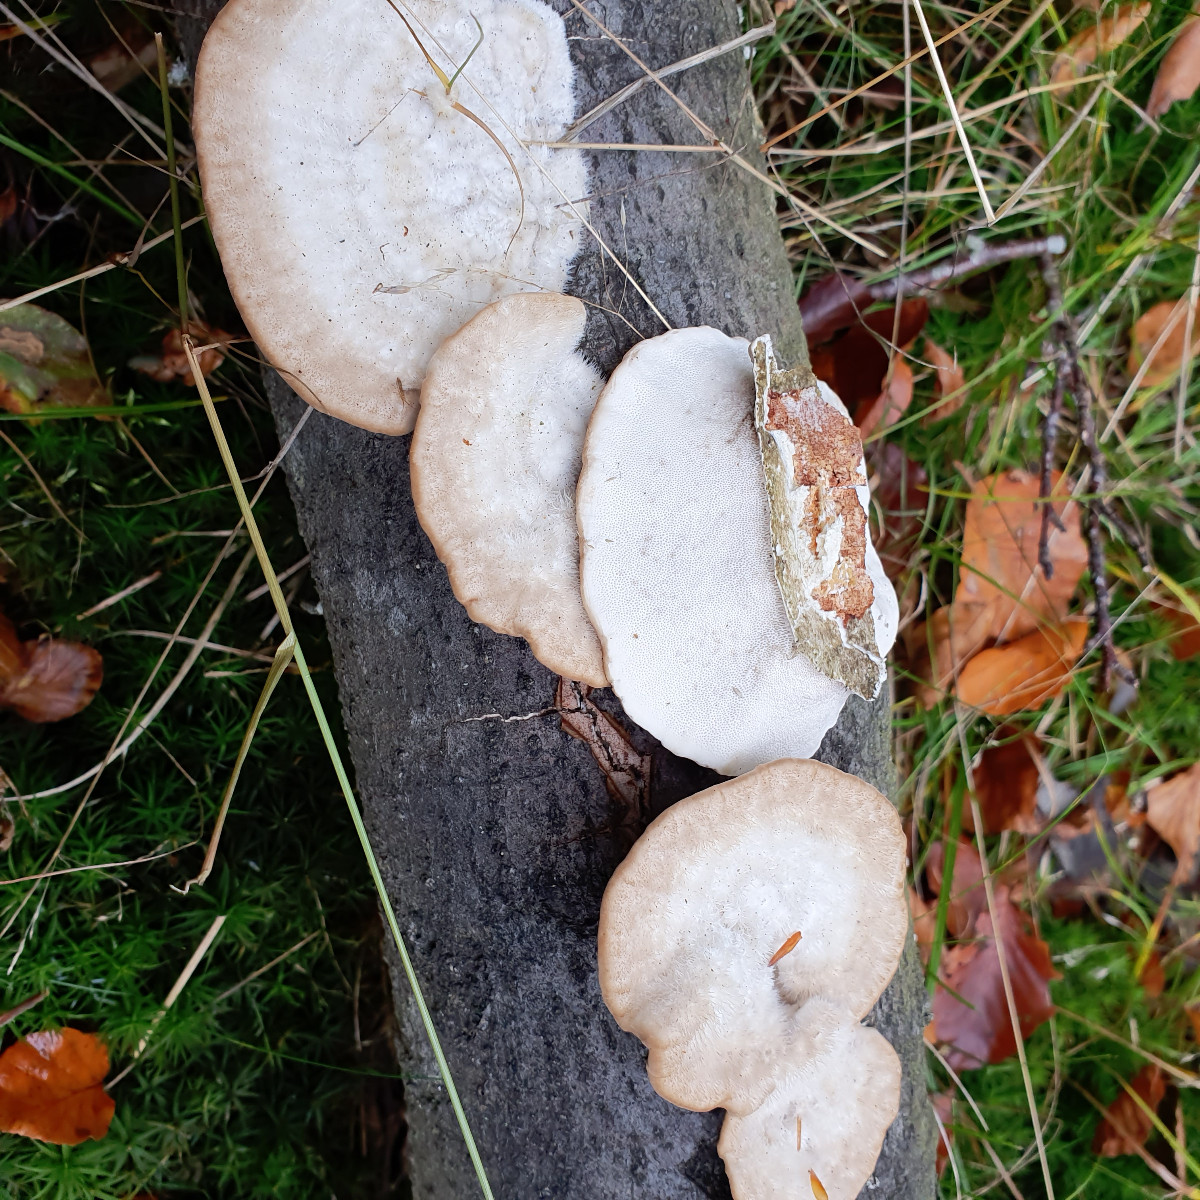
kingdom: Fungi
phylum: Basidiomycota
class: Agaricomycetes
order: Polyporales
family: Polyporaceae
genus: Trametes
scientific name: Trametes hirsuta
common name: håret læderporesvamp
